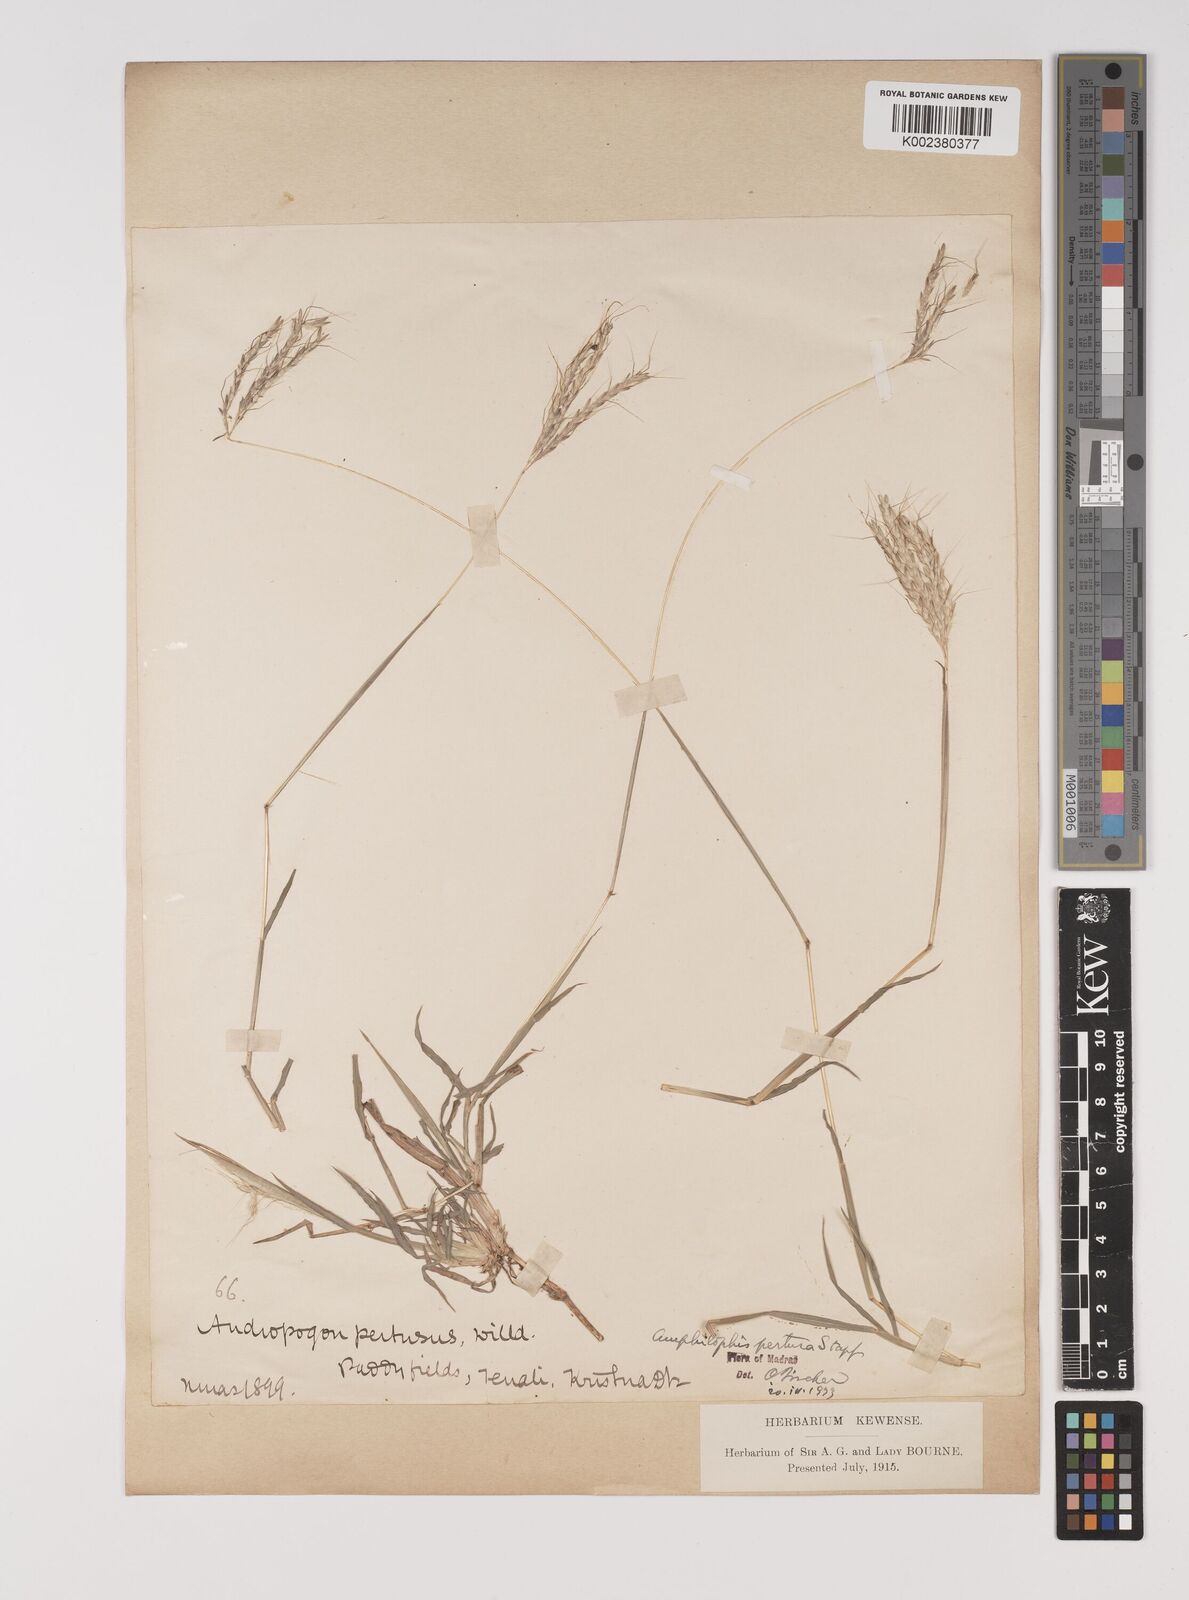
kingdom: Plantae
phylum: Tracheophyta
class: Liliopsida
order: Poales
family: Poaceae
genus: Bothriochloa
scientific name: Bothriochloa pertusa
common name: Pitted beardgrass
